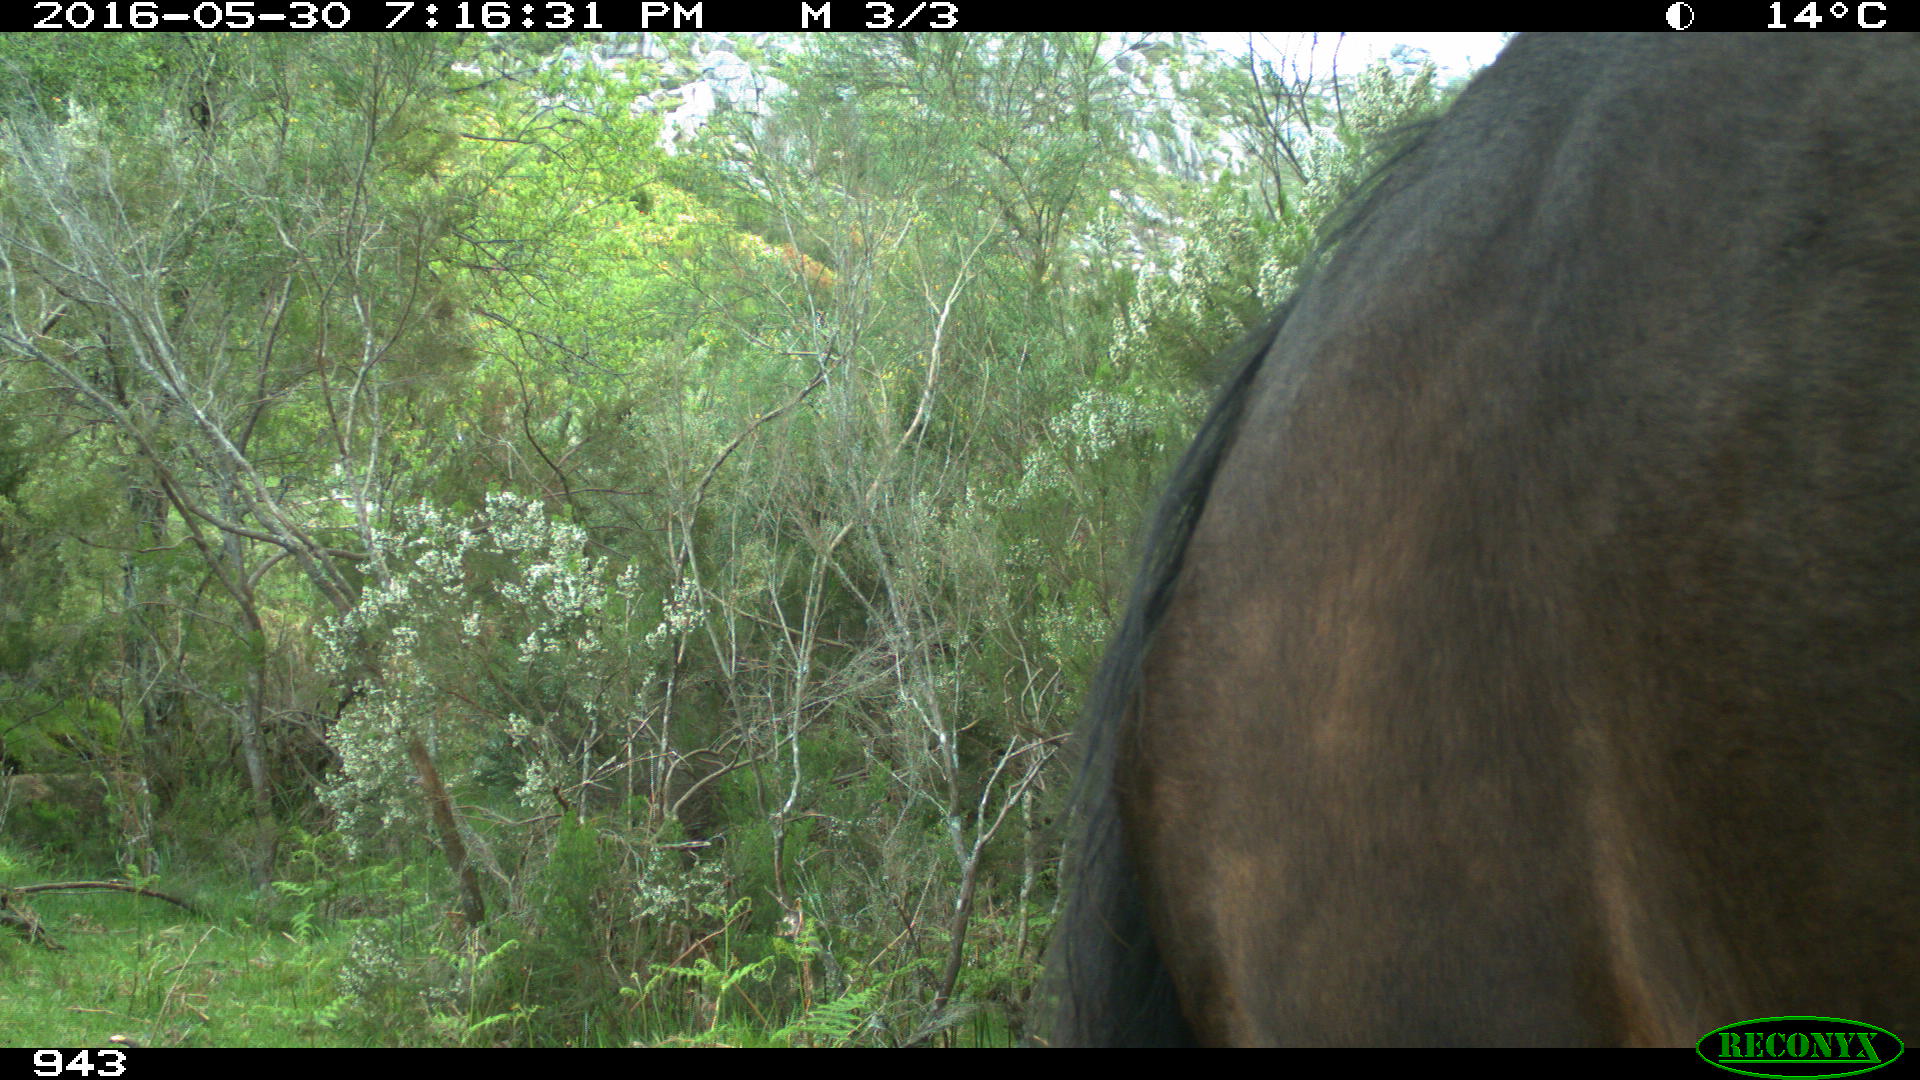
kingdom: Animalia
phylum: Chordata
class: Mammalia
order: Perissodactyla
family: Equidae
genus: Equus
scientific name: Equus caballus
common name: Horse
